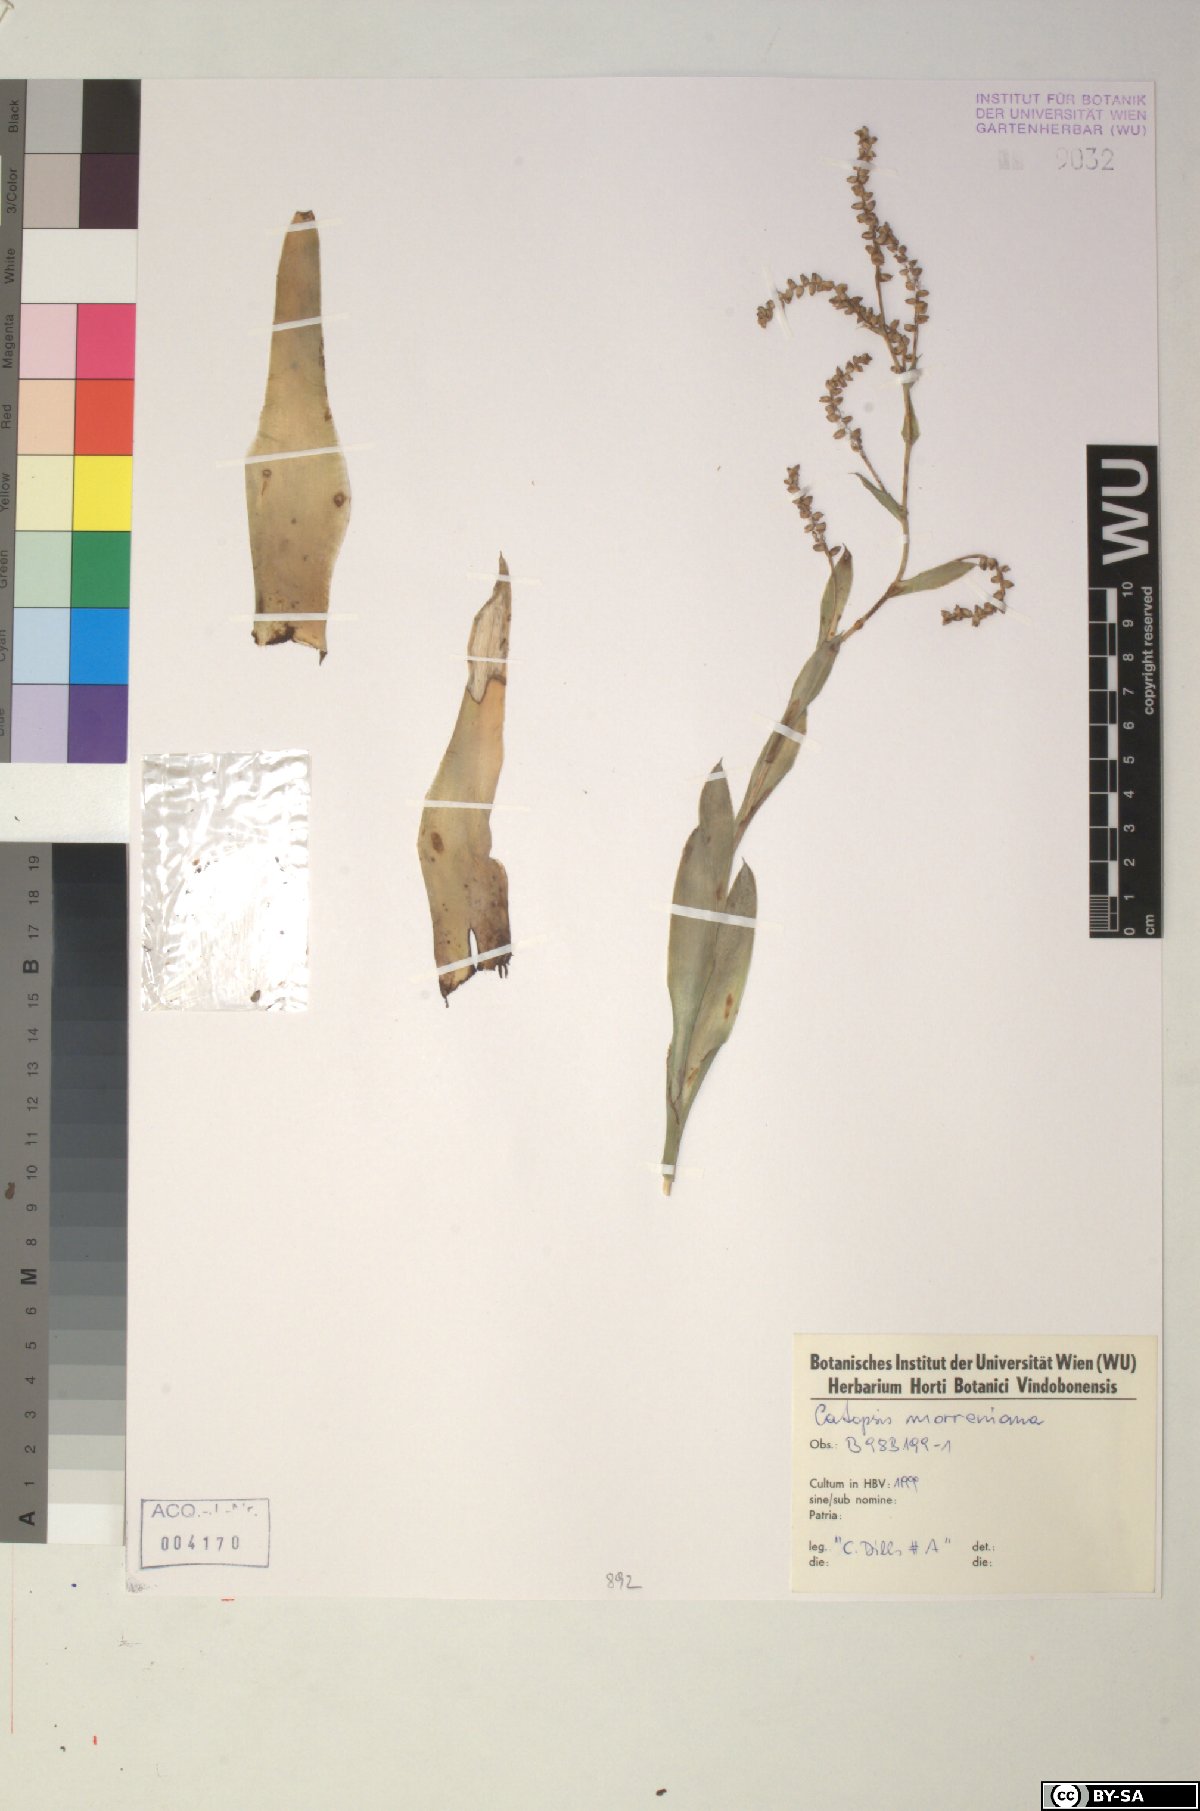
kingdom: Plantae
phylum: Tracheophyta
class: Liliopsida
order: Poales
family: Bromeliaceae
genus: Catopsis
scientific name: Catopsis morreniana
